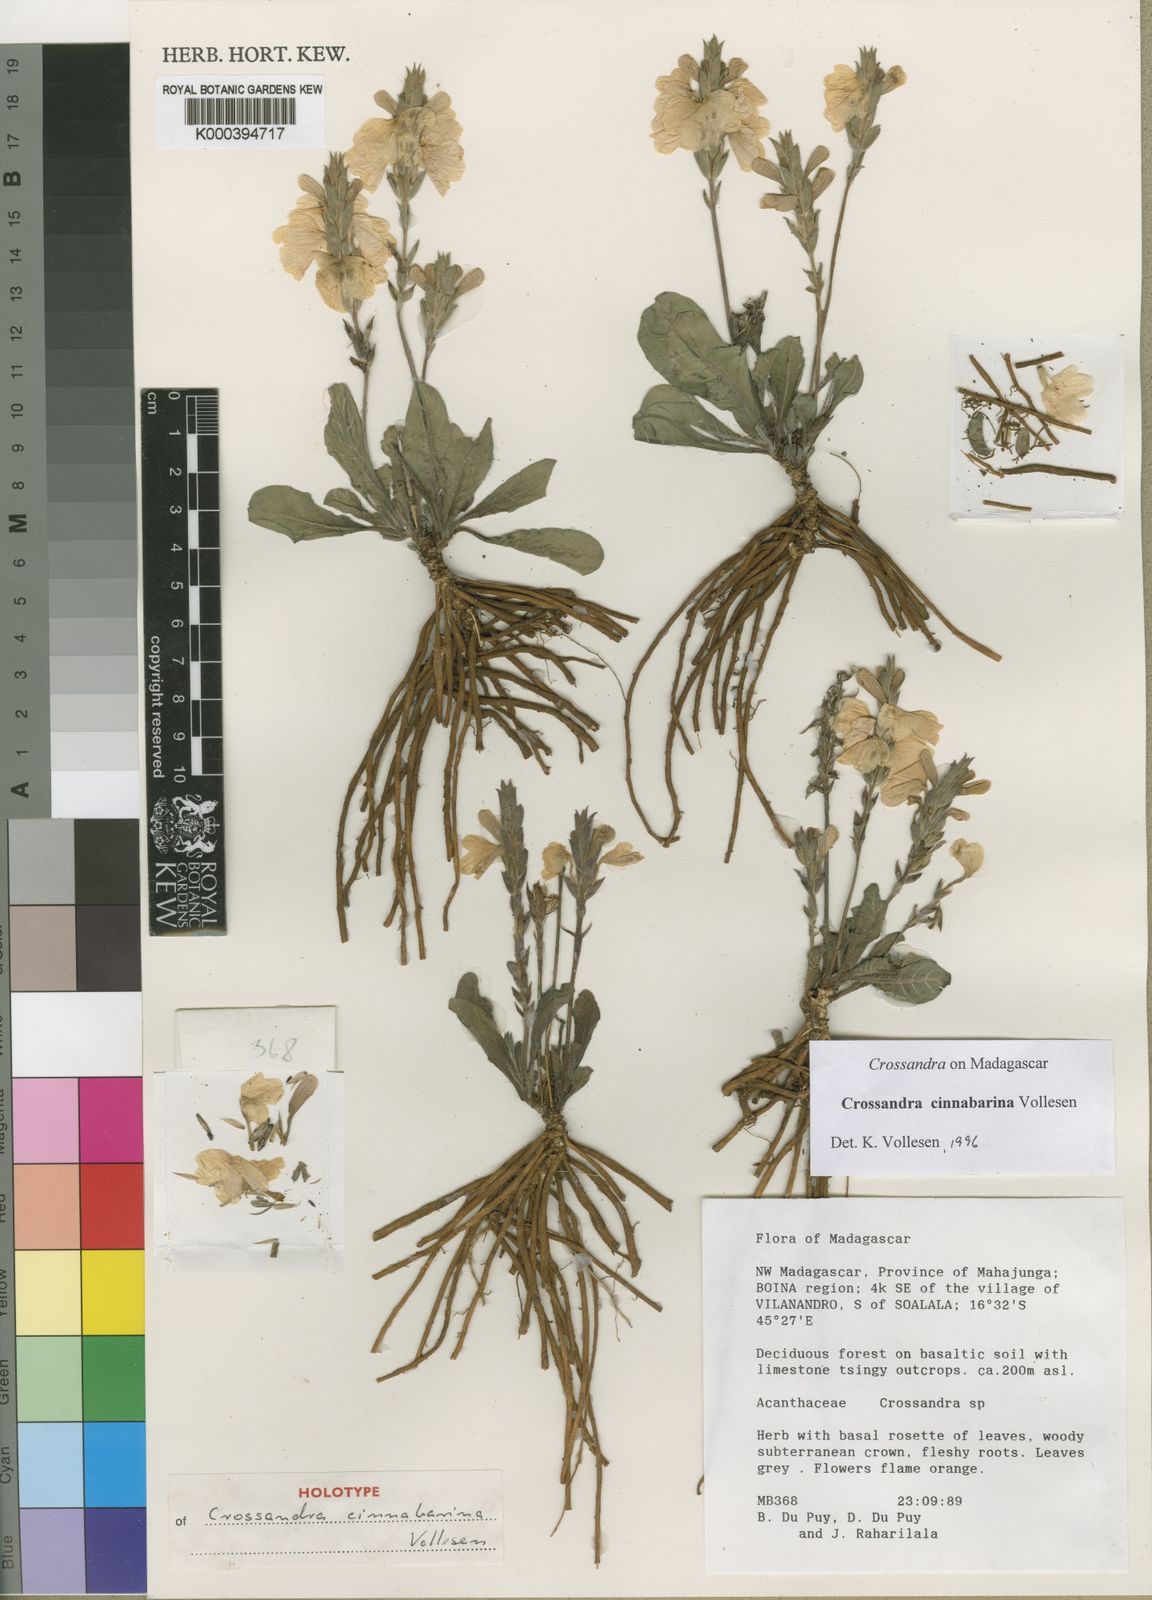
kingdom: Plantae
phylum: Tracheophyta
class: Magnoliopsida
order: Lamiales
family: Acanthaceae
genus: Crossandra
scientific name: Crossandra cinnabarina
